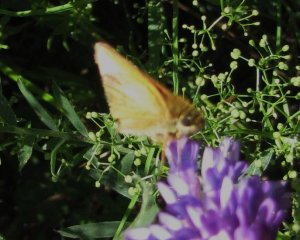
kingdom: Animalia
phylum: Arthropoda
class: Insecta
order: Lepidoptera
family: Hesperiidae
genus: Thymelicus
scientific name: Thymelicus lineola
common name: European Skipper
